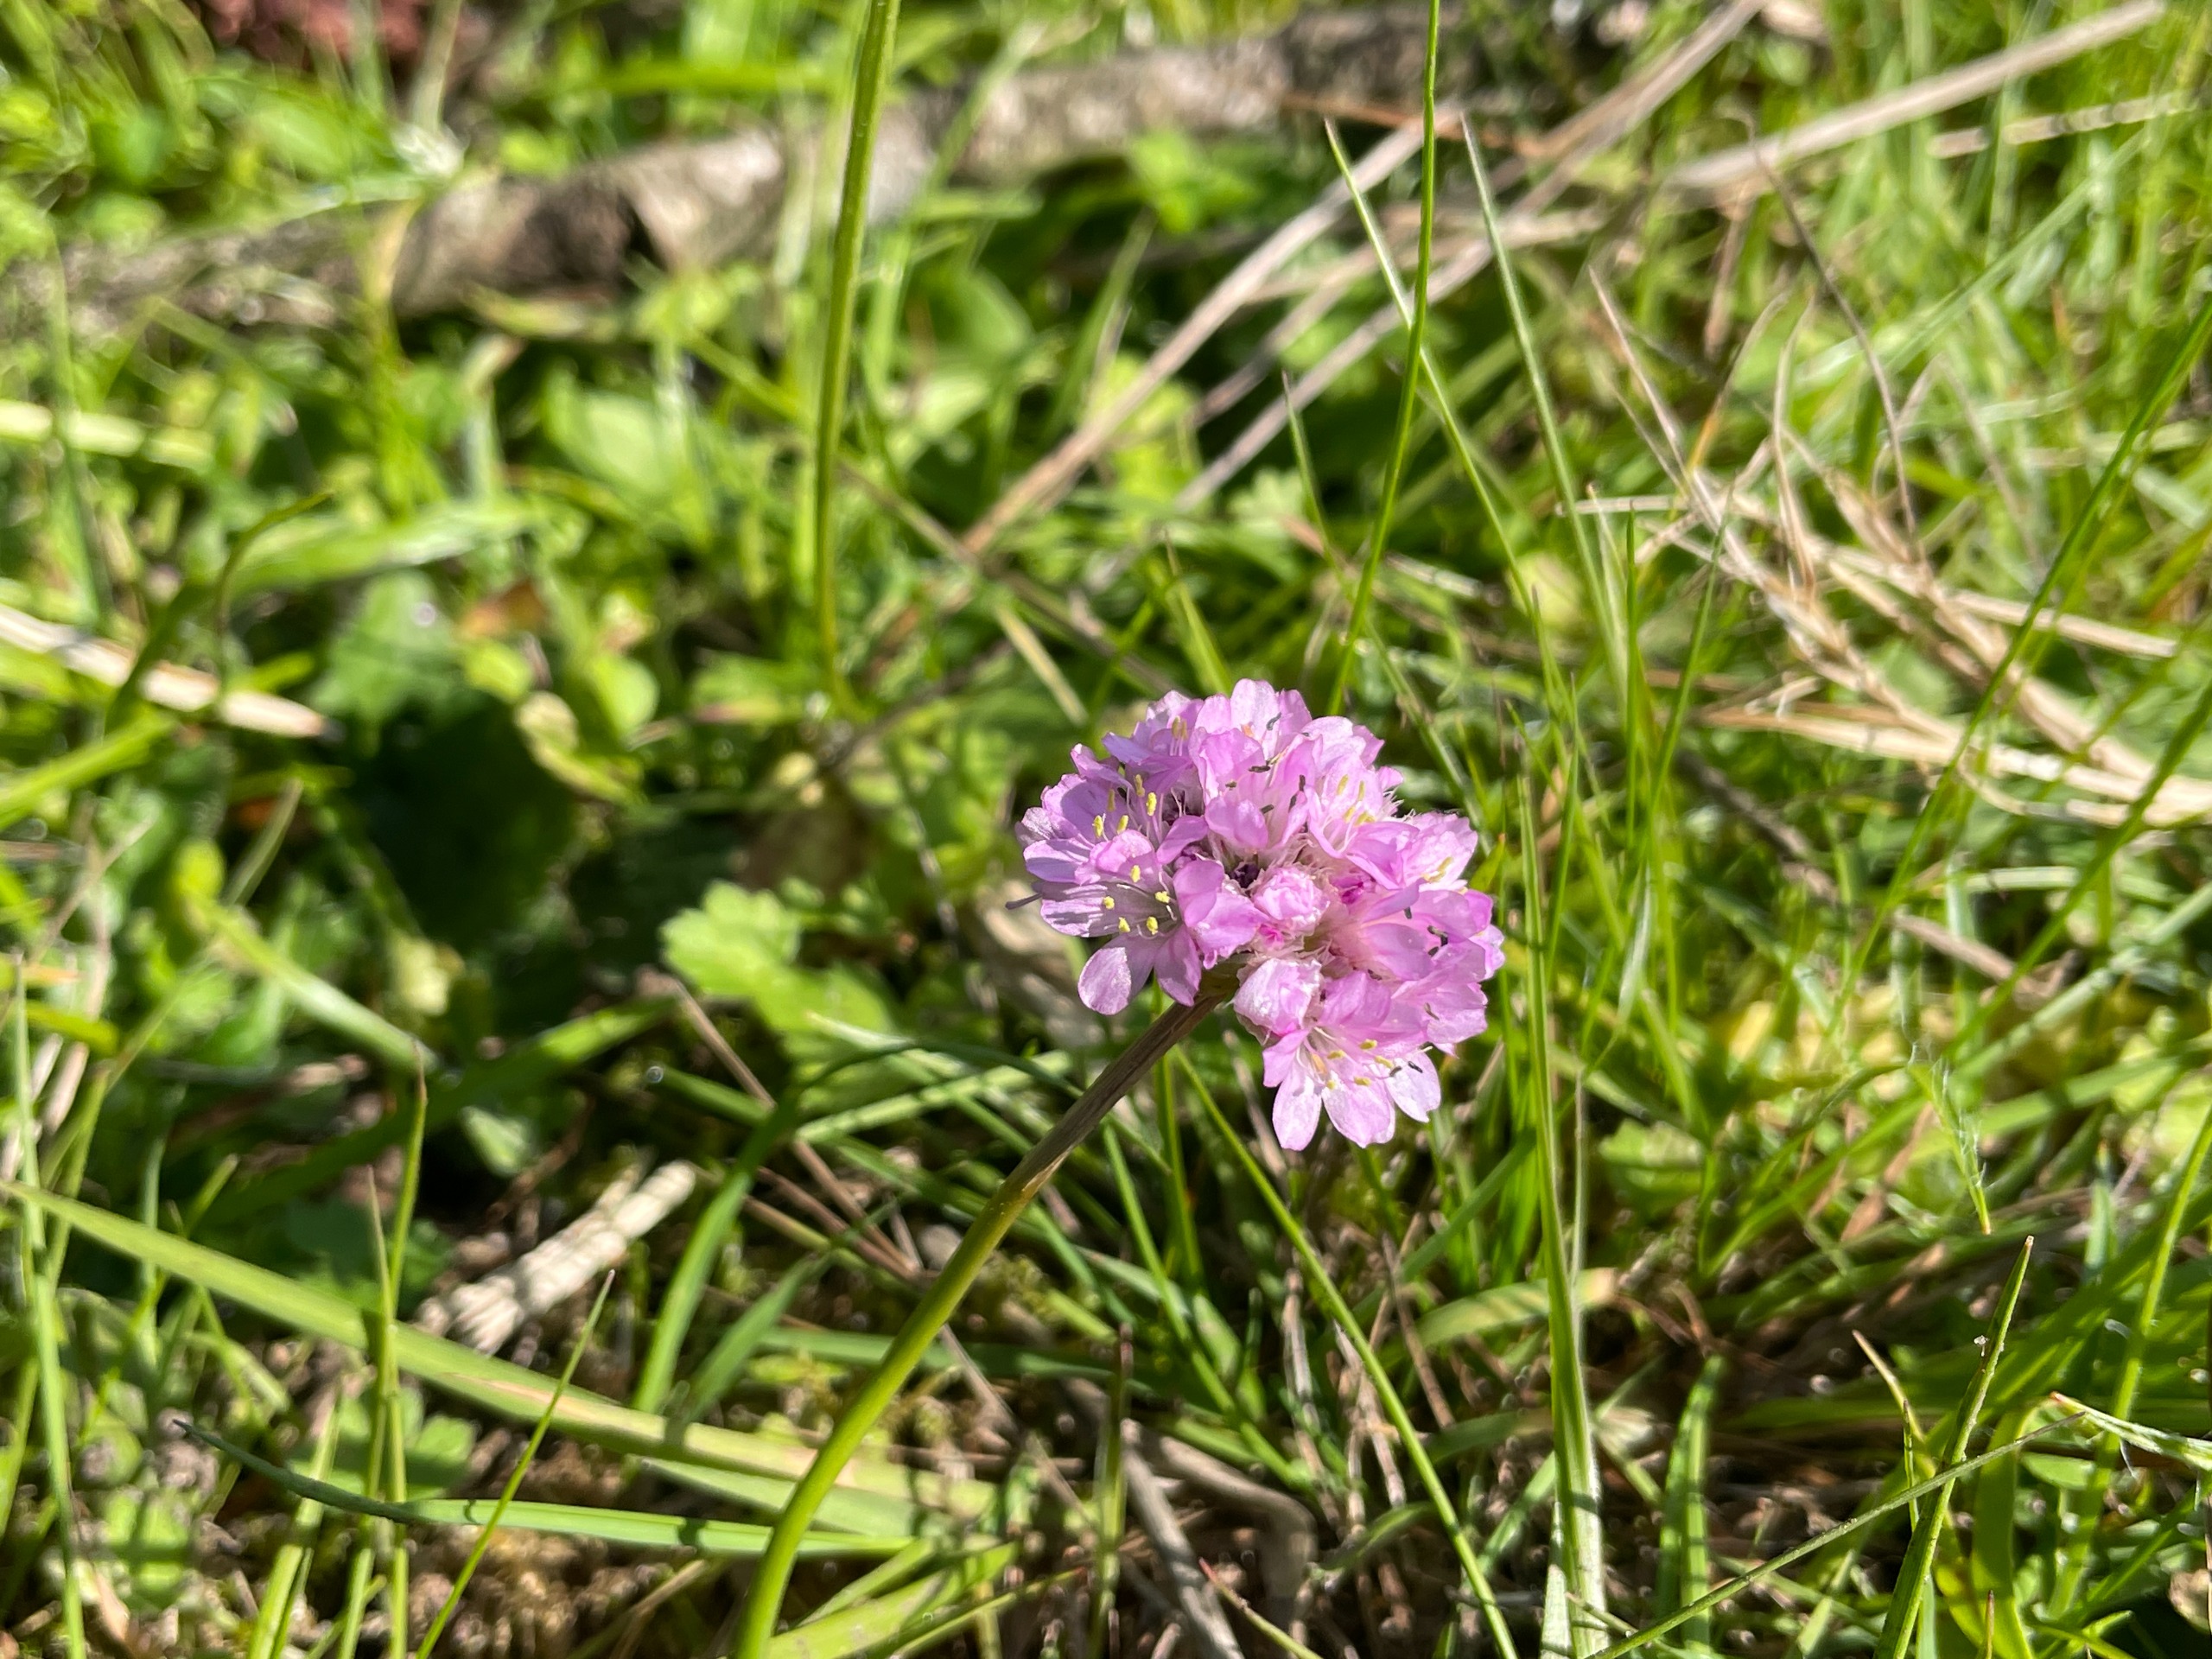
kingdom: Plantae
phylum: Tracheophyta
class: Magnoliopsida
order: Caryophyllales
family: Plumbaginaceae
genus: Armeria
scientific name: Armeria maritima
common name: Engelskgræs
